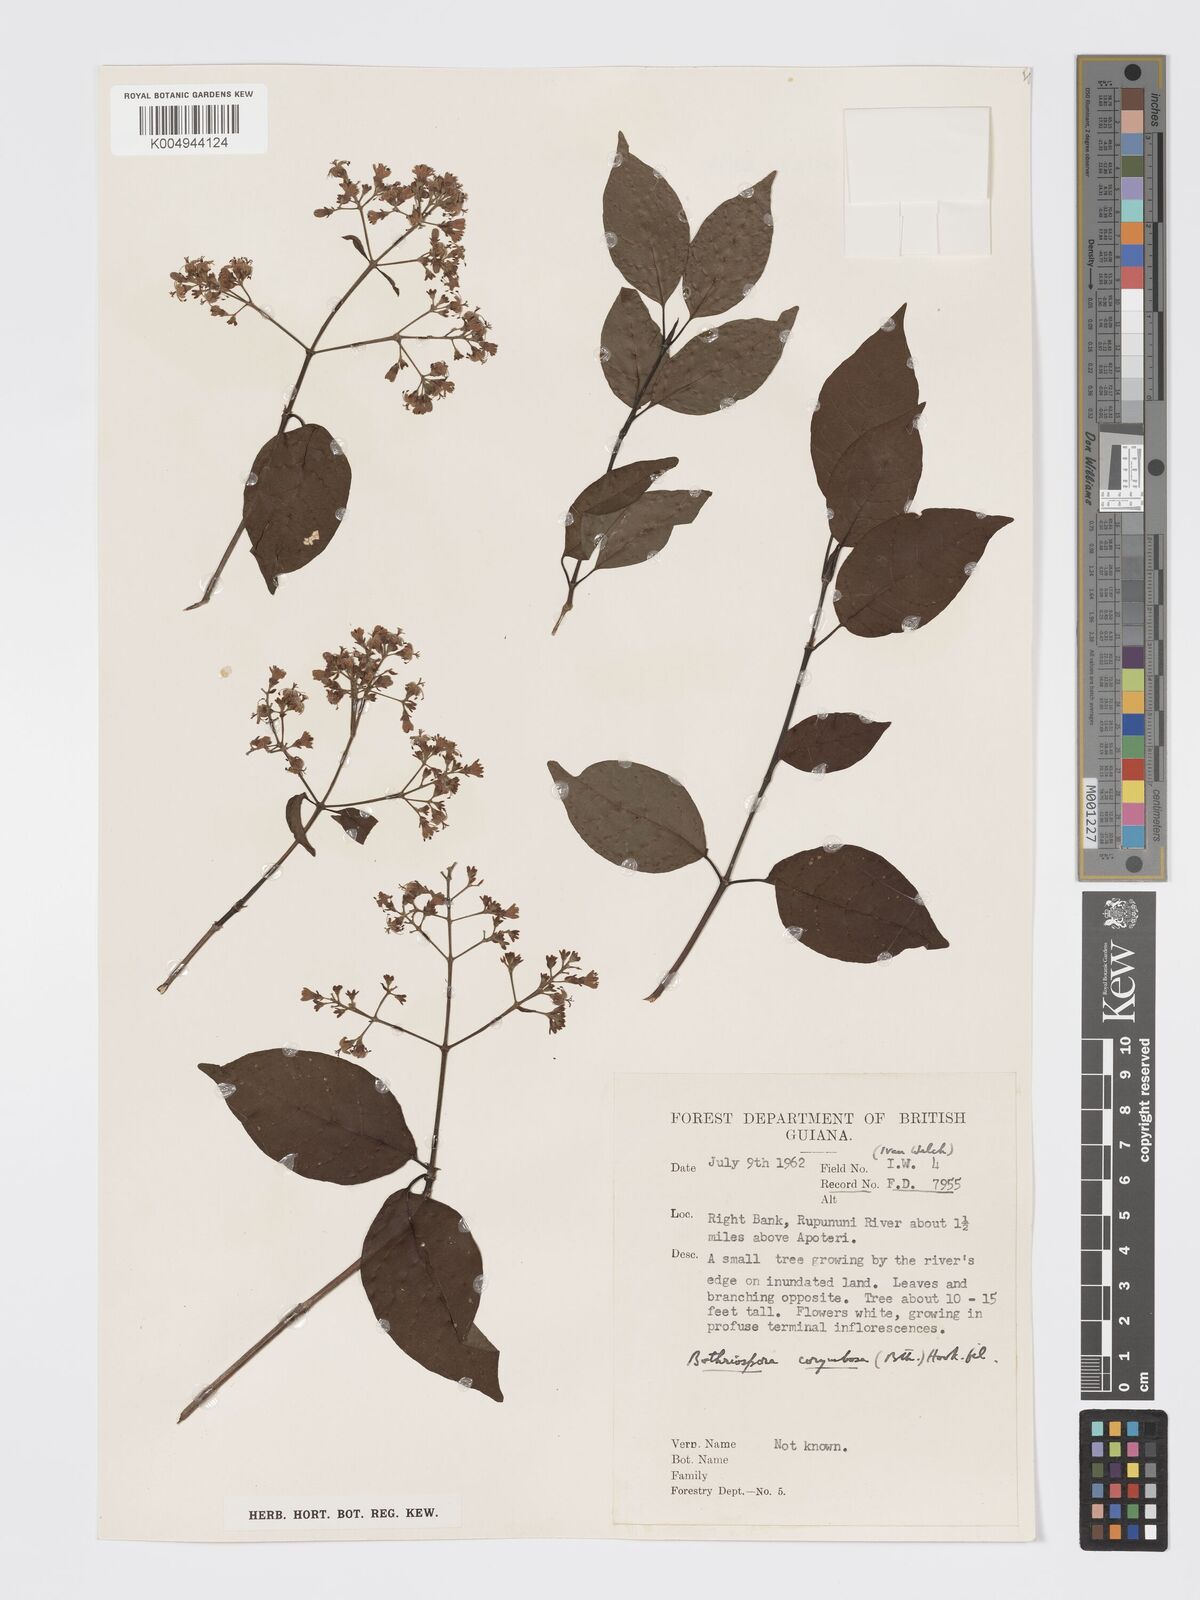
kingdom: Plantae
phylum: Tracheophyta
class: Magnoliopsida
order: Gentianales
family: Rubiaceae
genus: Bothriospora
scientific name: Bothriospora corymbosa
